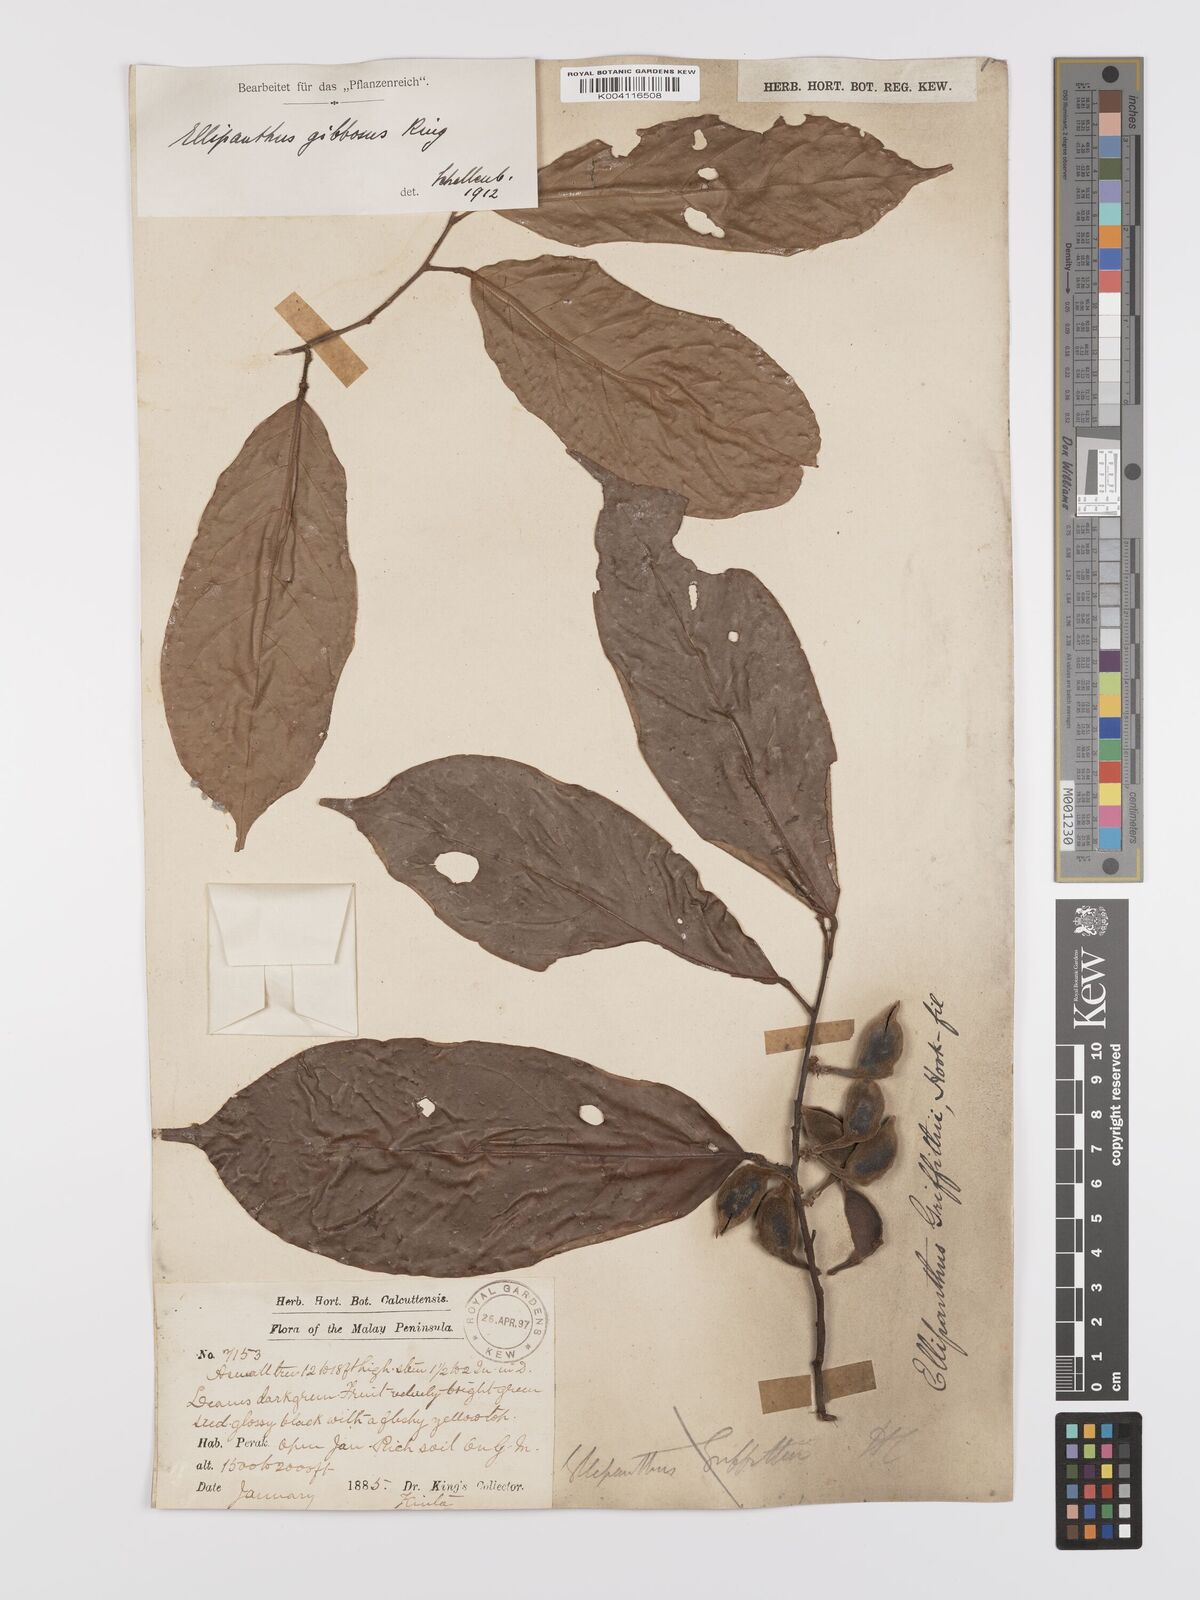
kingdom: Plantae
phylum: Tracheophyta
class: Magnoliopsida
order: Oxalidales
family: Connaraceae
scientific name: Connaraceae
